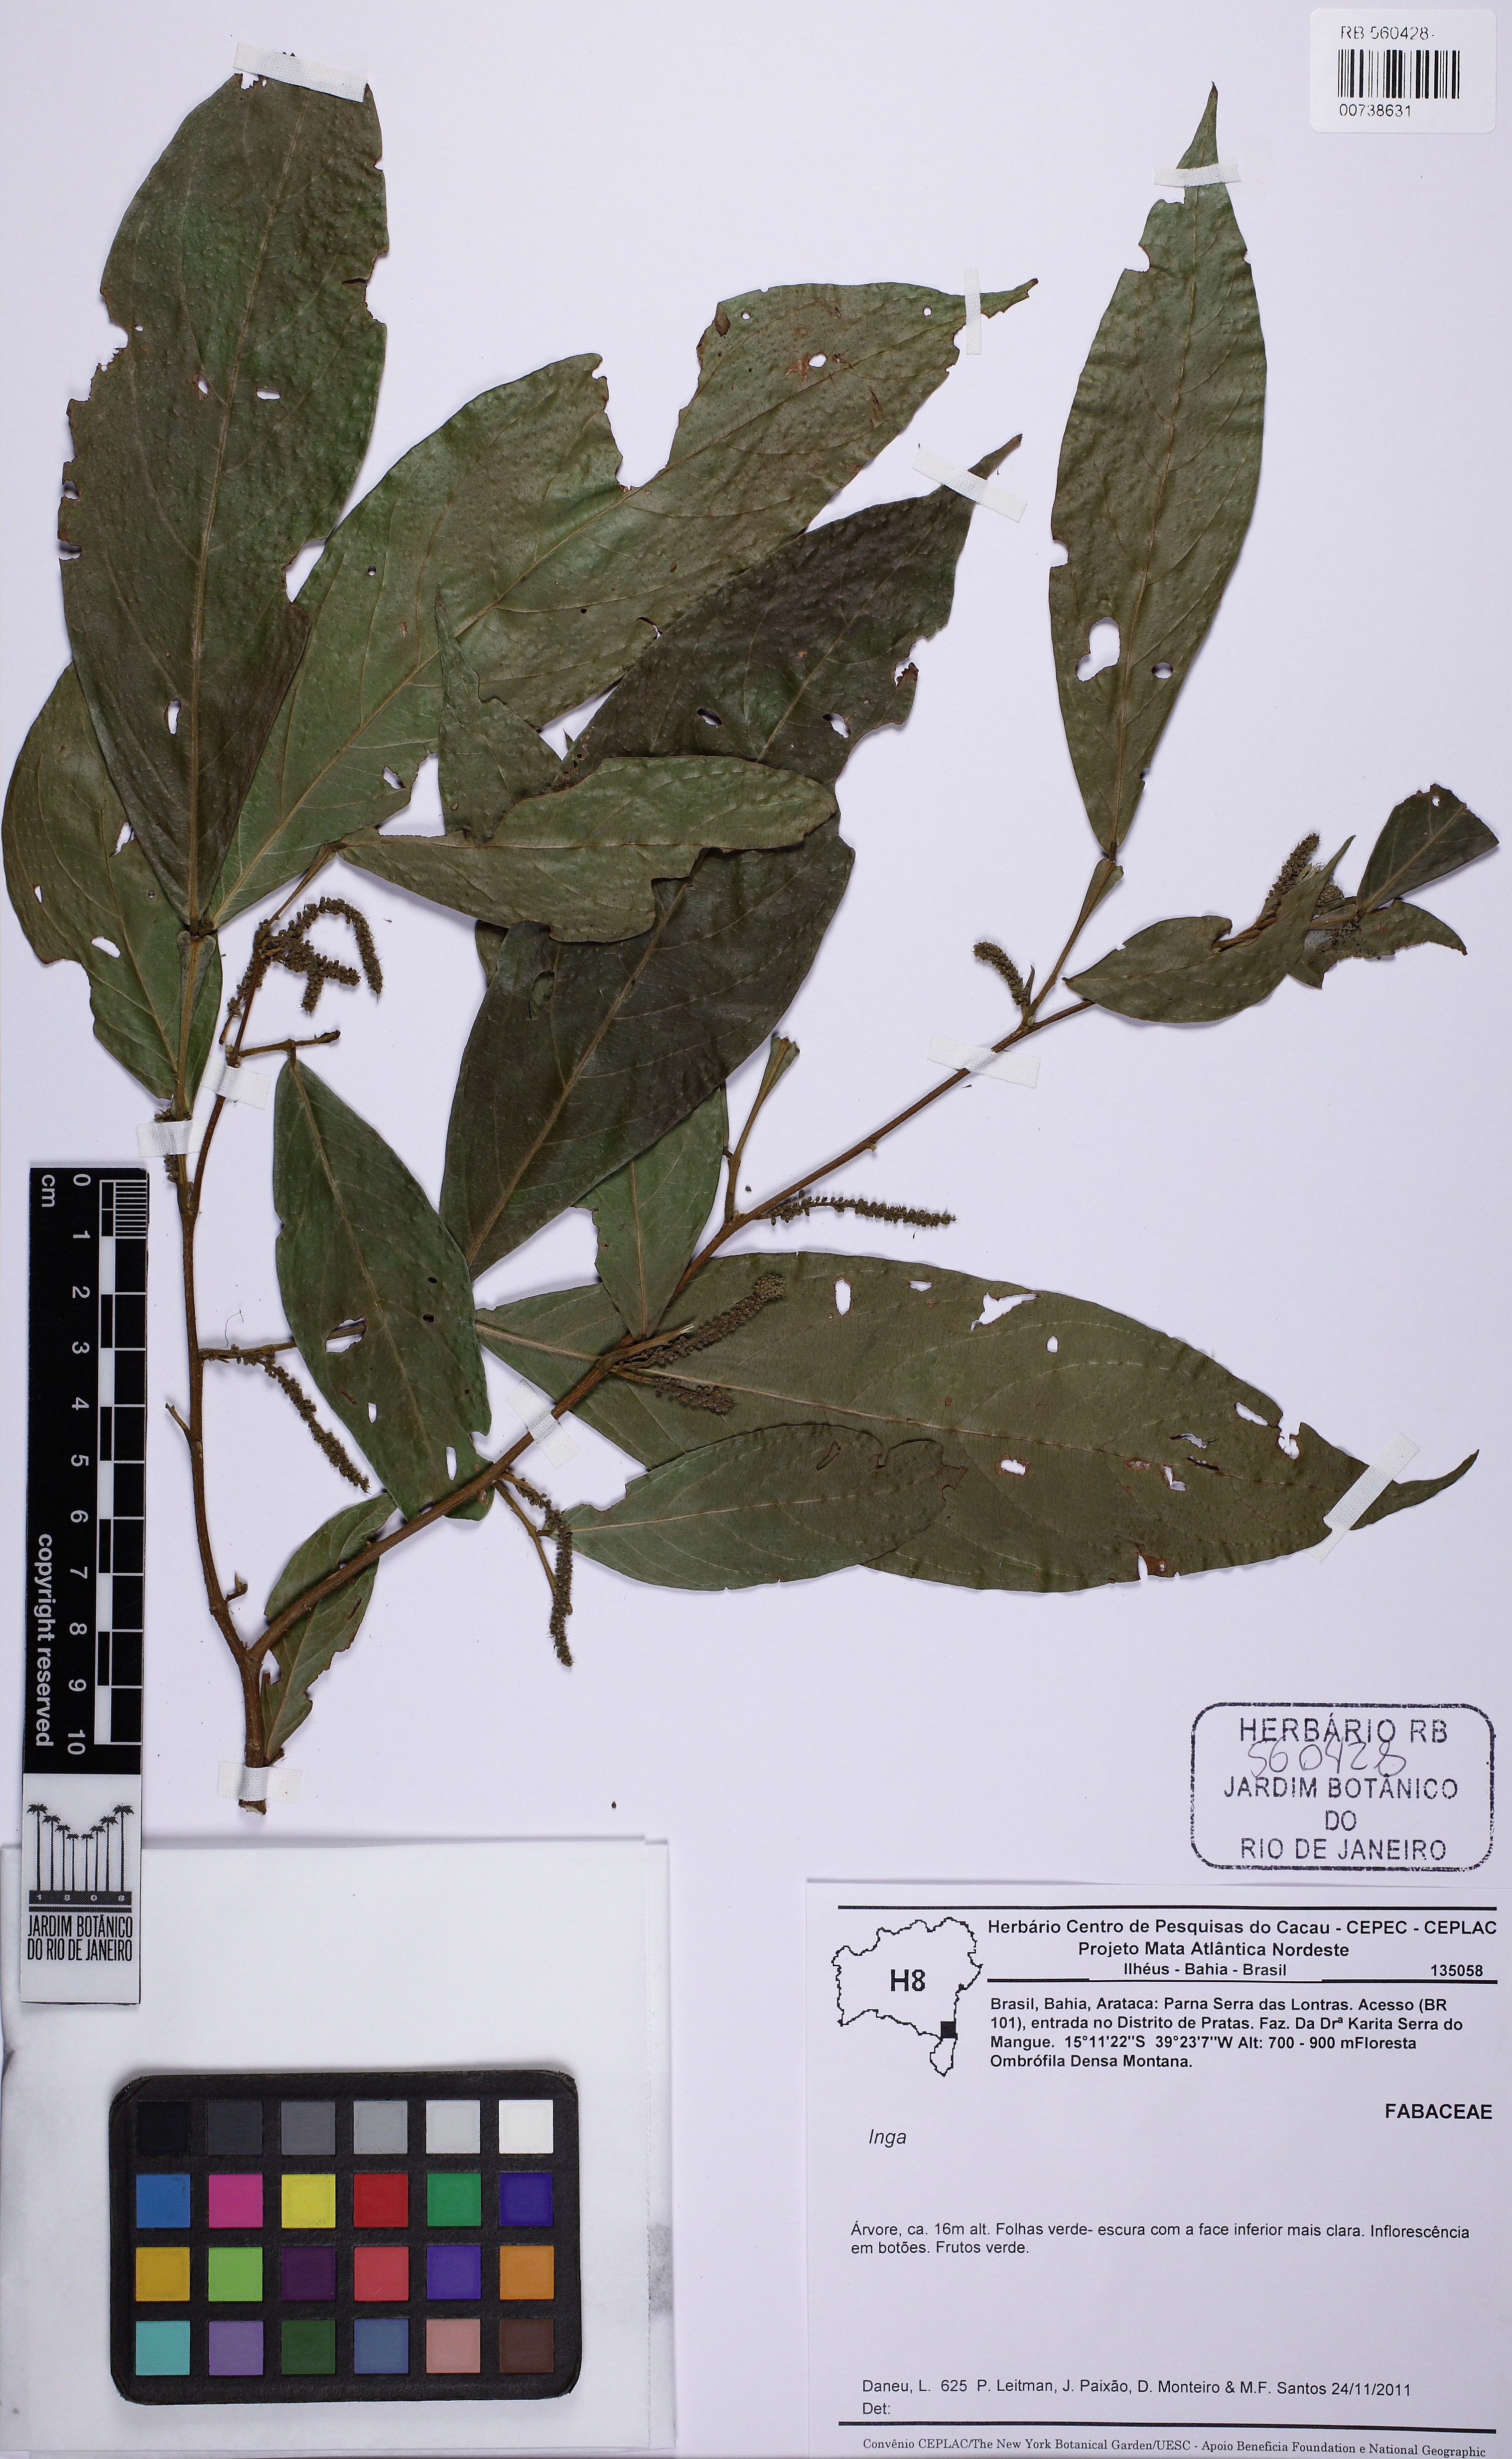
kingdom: Plantae
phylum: Tracheophyta
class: Magnoliopsida
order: Fabales
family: Fabaceae
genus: Inga
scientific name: Inga
